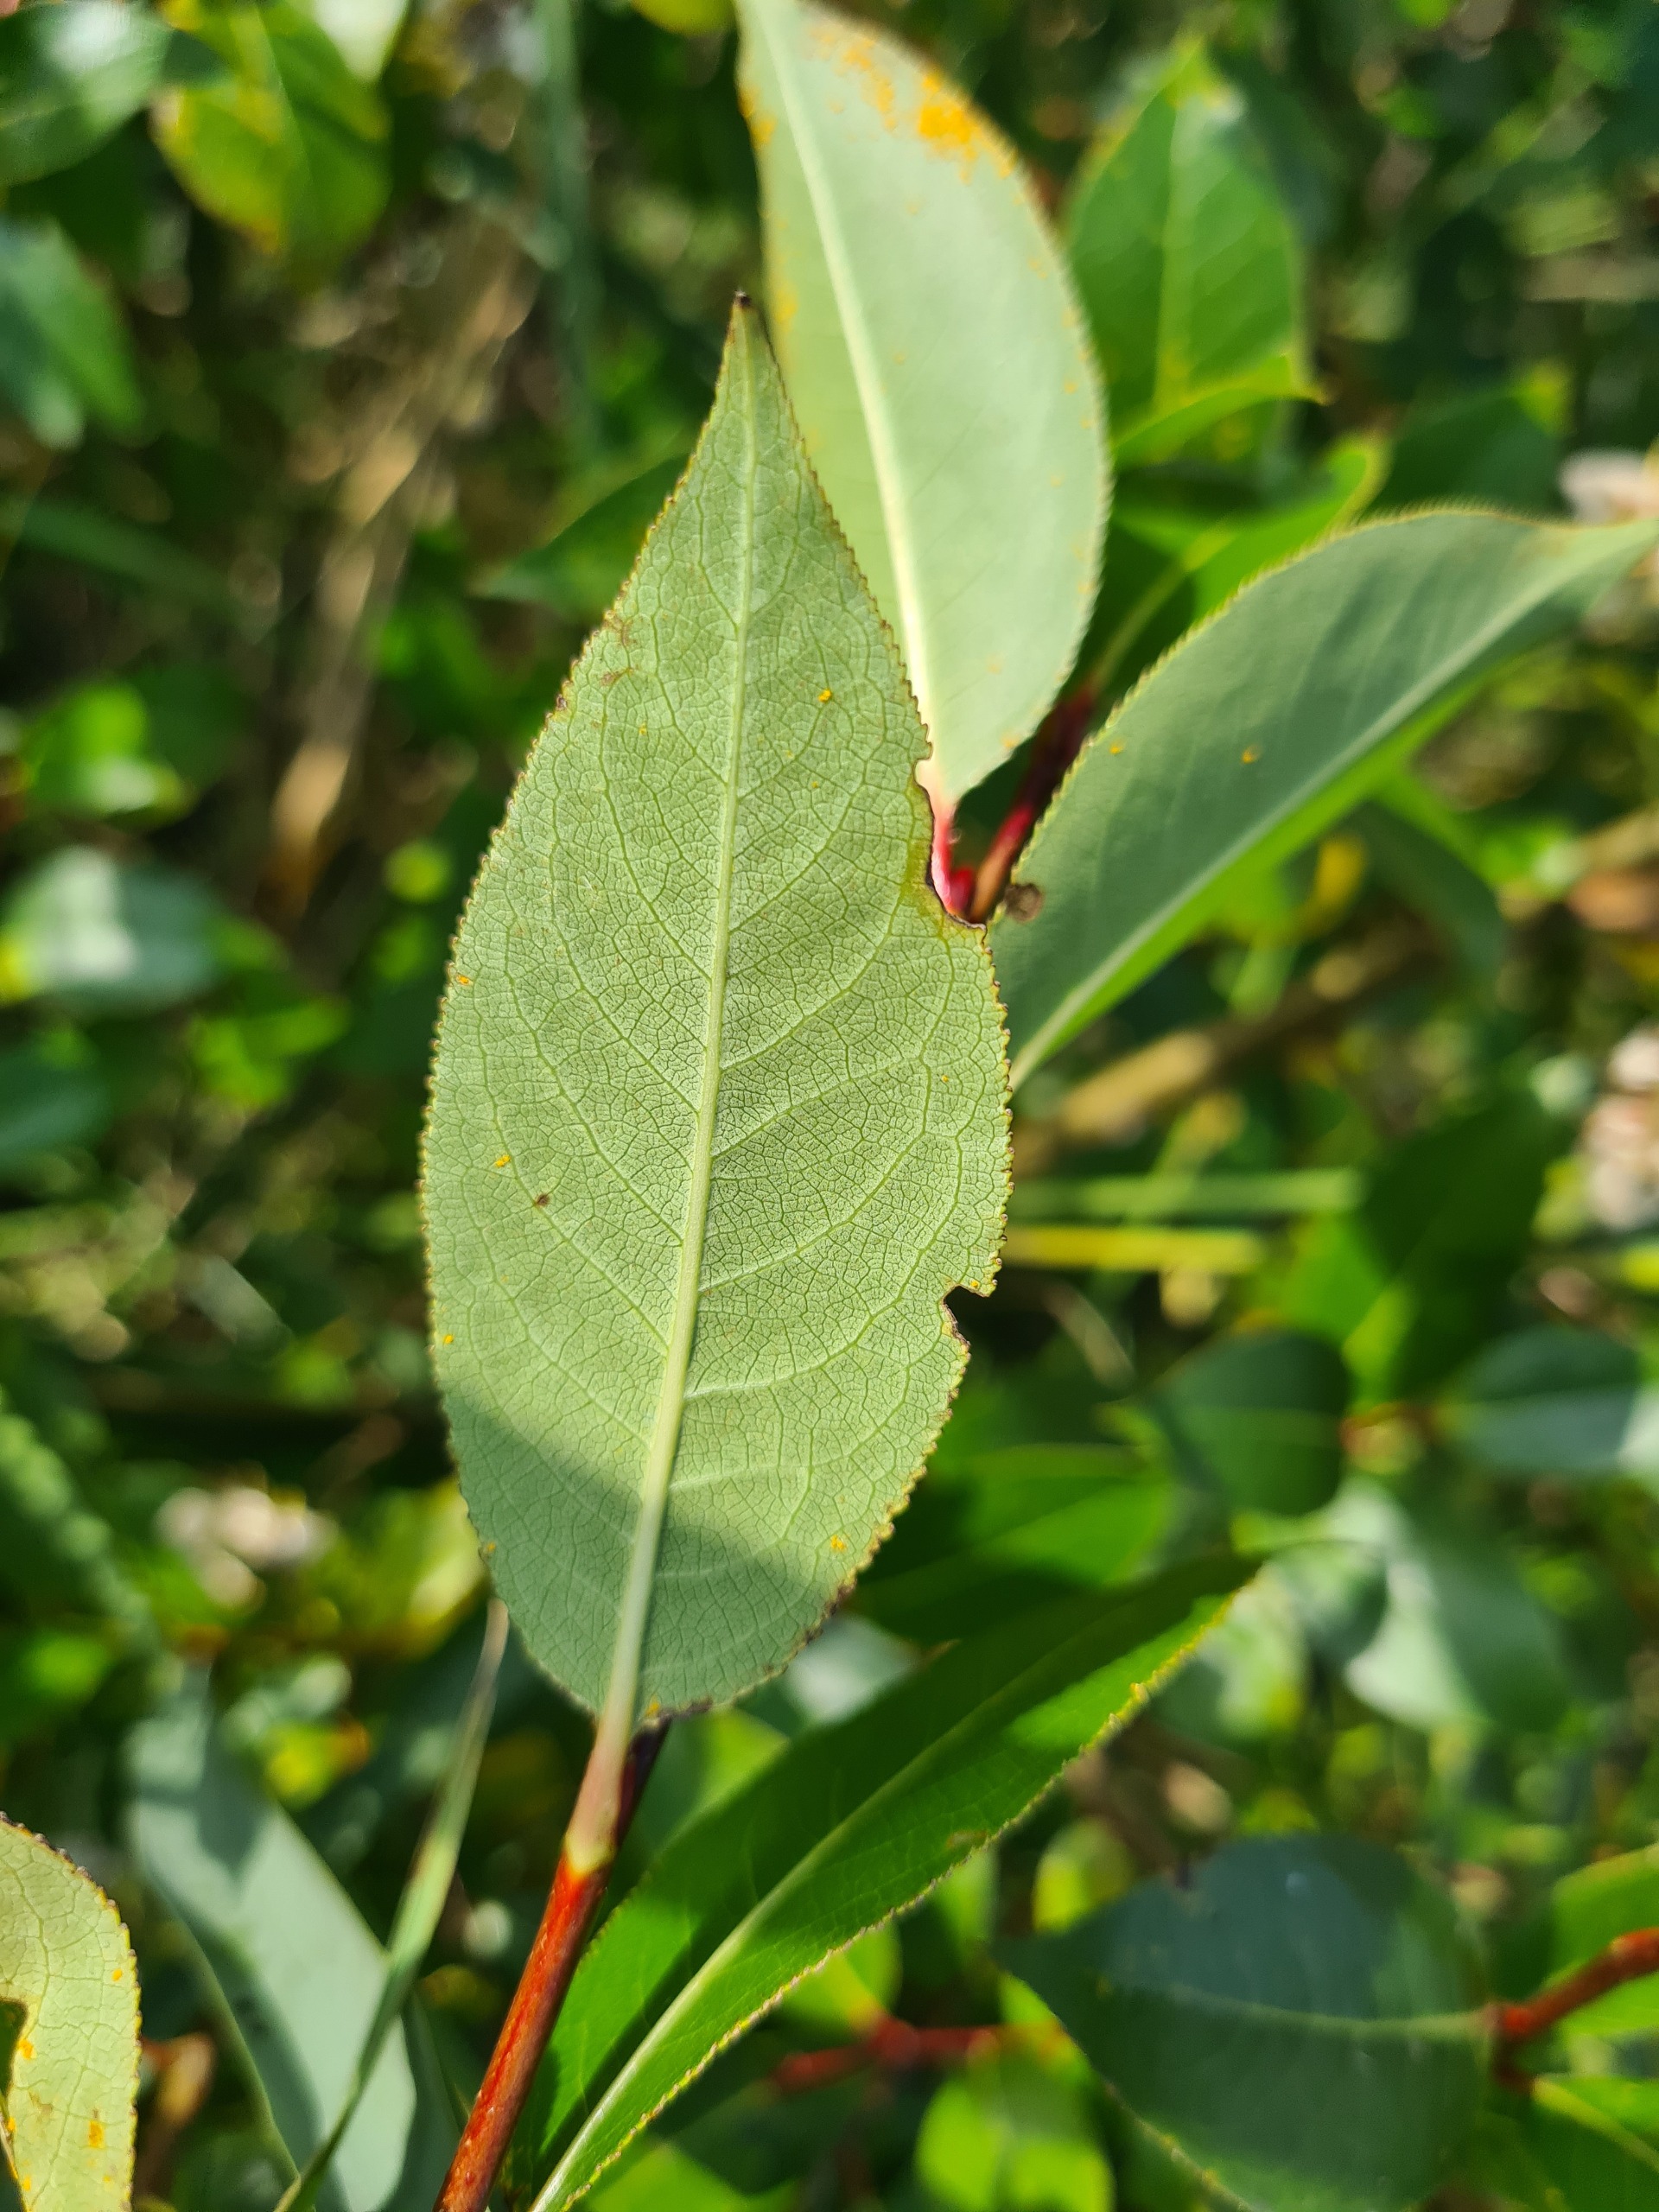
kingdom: Plantae
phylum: Tracheophyta
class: Magnoliopsida
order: Malpighiales
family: Salicaceae
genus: Salix
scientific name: Salix pentandra
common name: Femhannet pil
